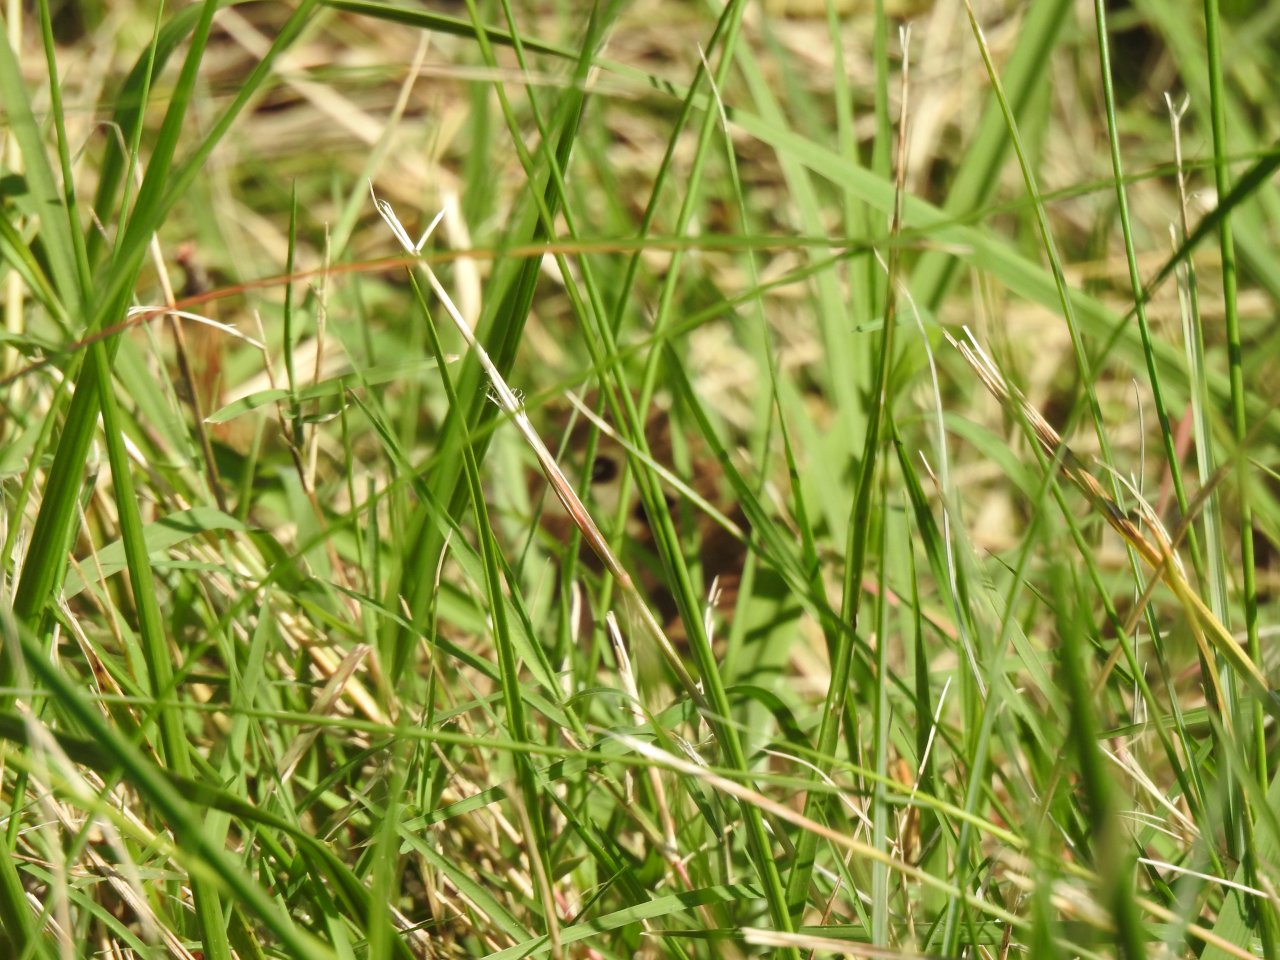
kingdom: Animalia
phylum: Arthropoda
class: Insecta
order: Lepidoptera
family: Nymphalidae
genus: Cercyonis
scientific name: Cercyonis pegala
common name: Common Wood-Nymph
